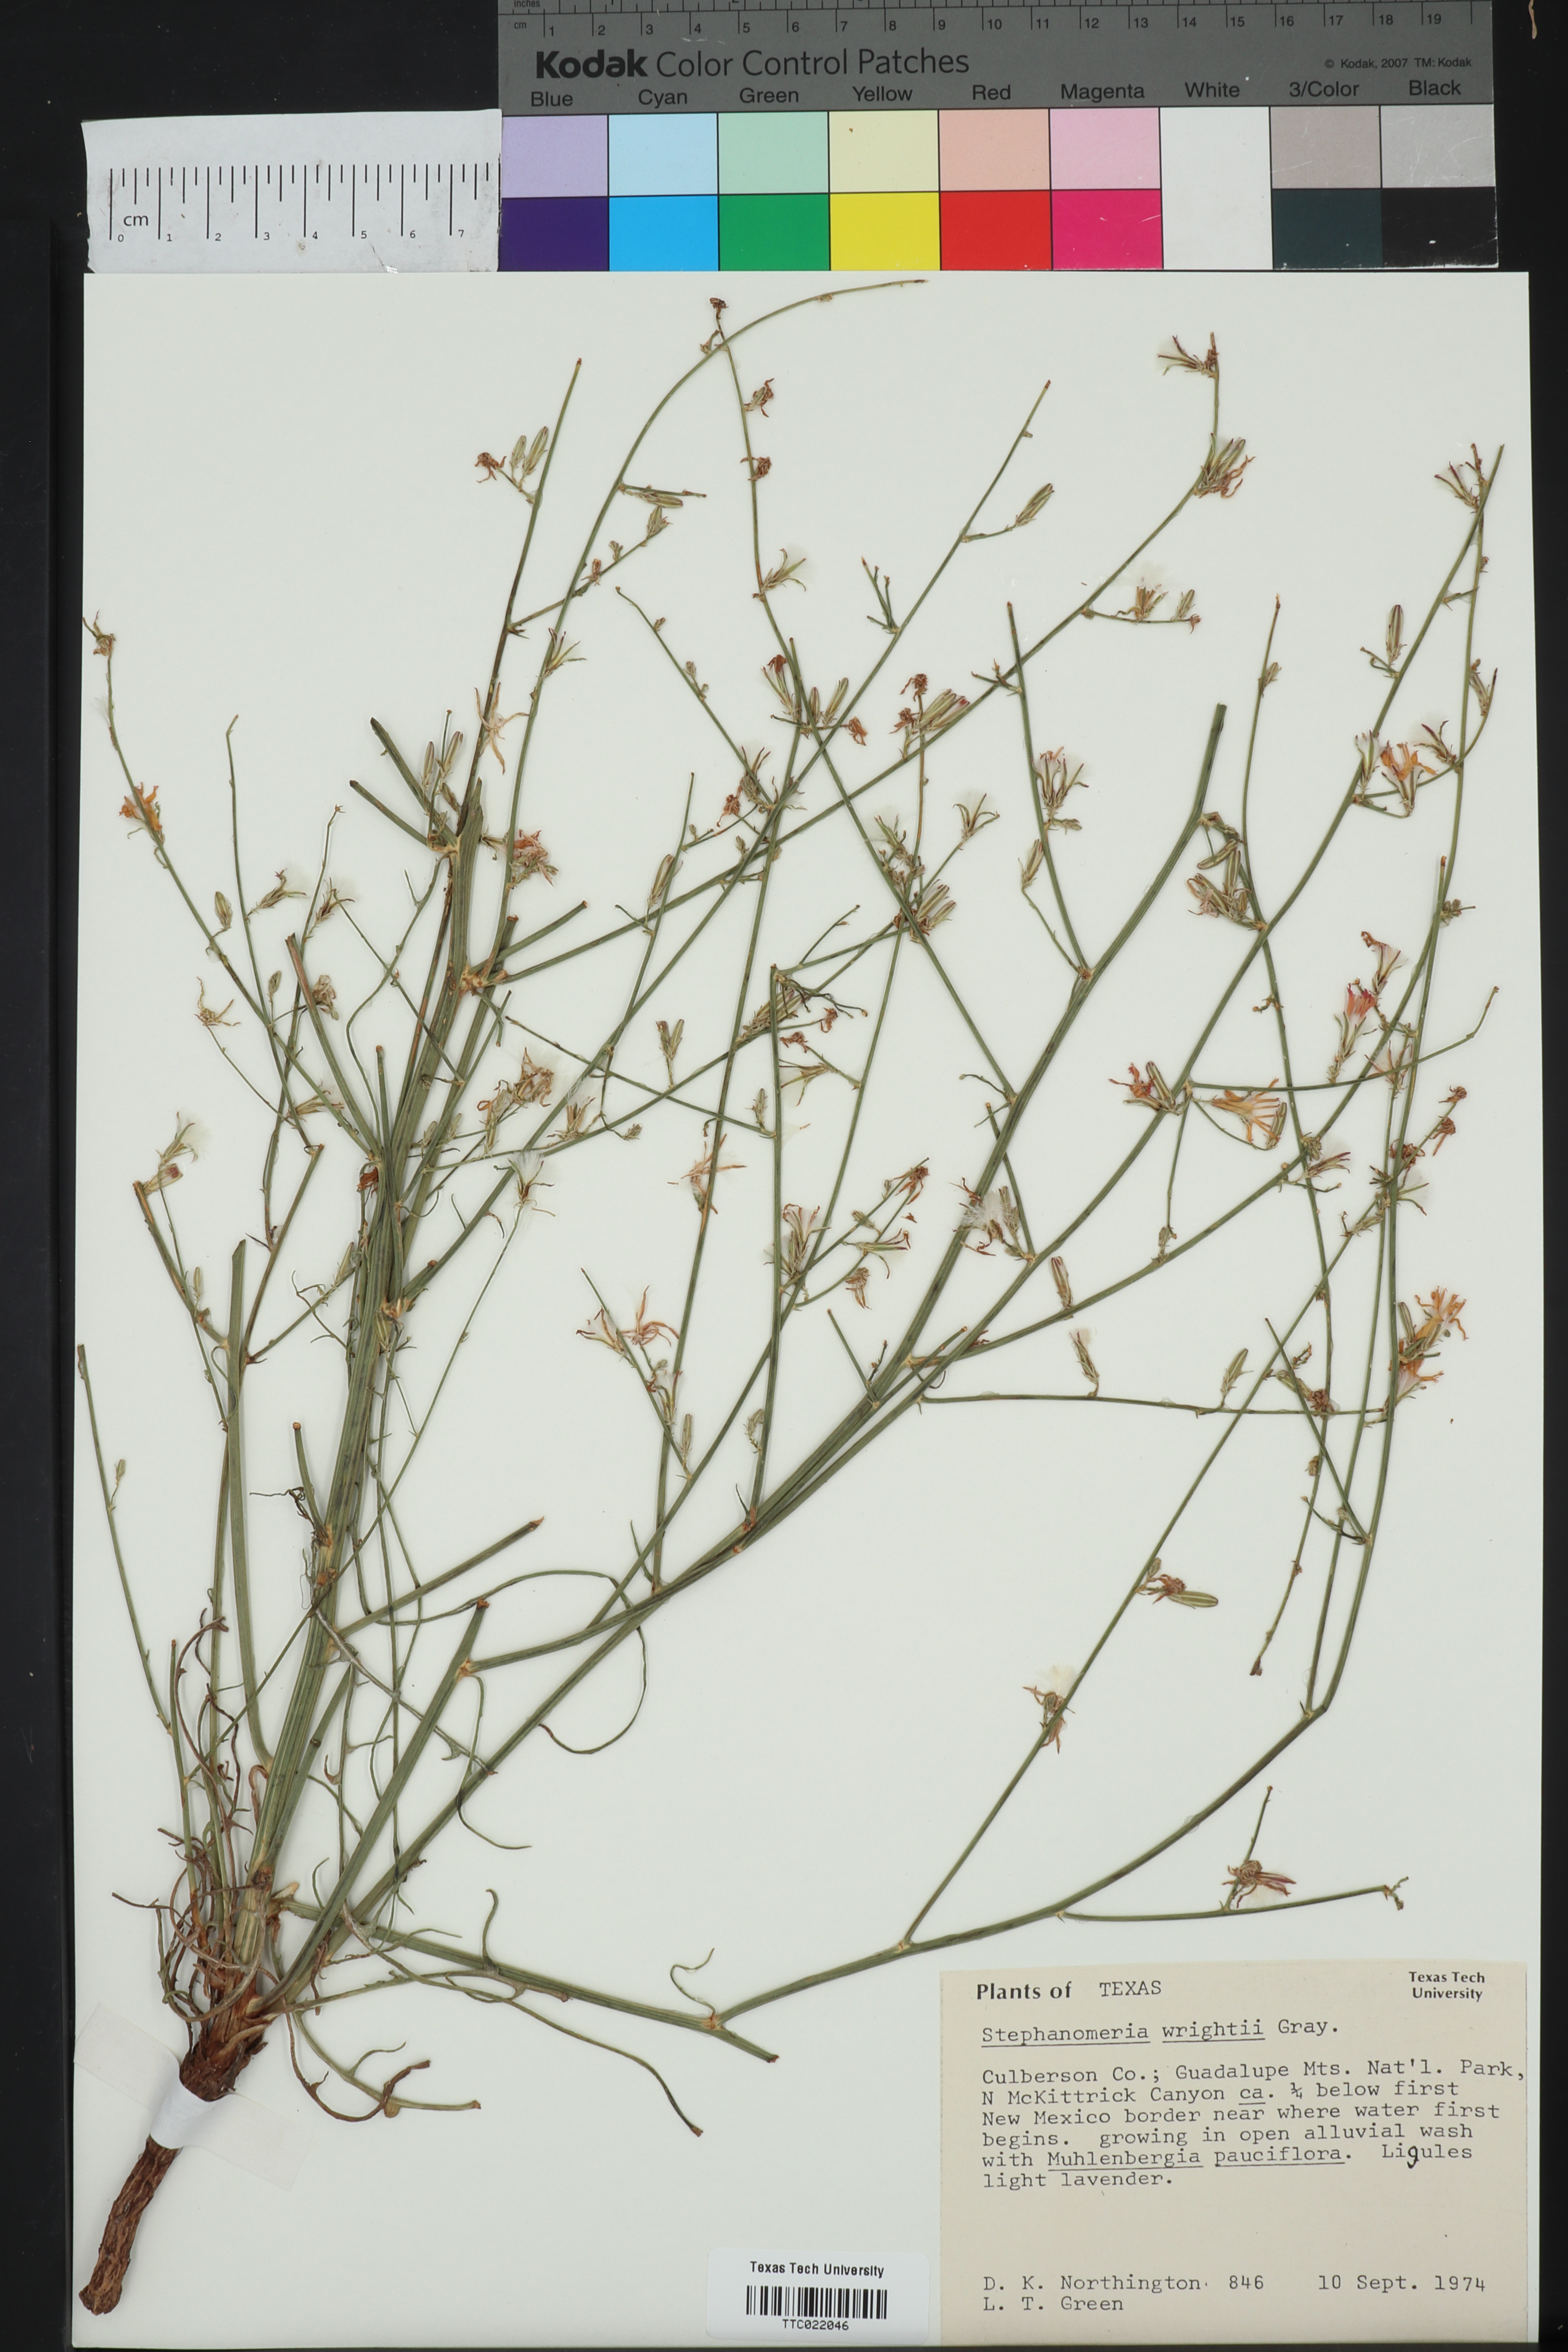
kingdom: Plantae
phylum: Tracheophyta
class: Magnoliopsida
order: Asterales
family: Asteraceae
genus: Stephanomeria
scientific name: Stephanomeria tenuifolia
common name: Slender wirelettuce
